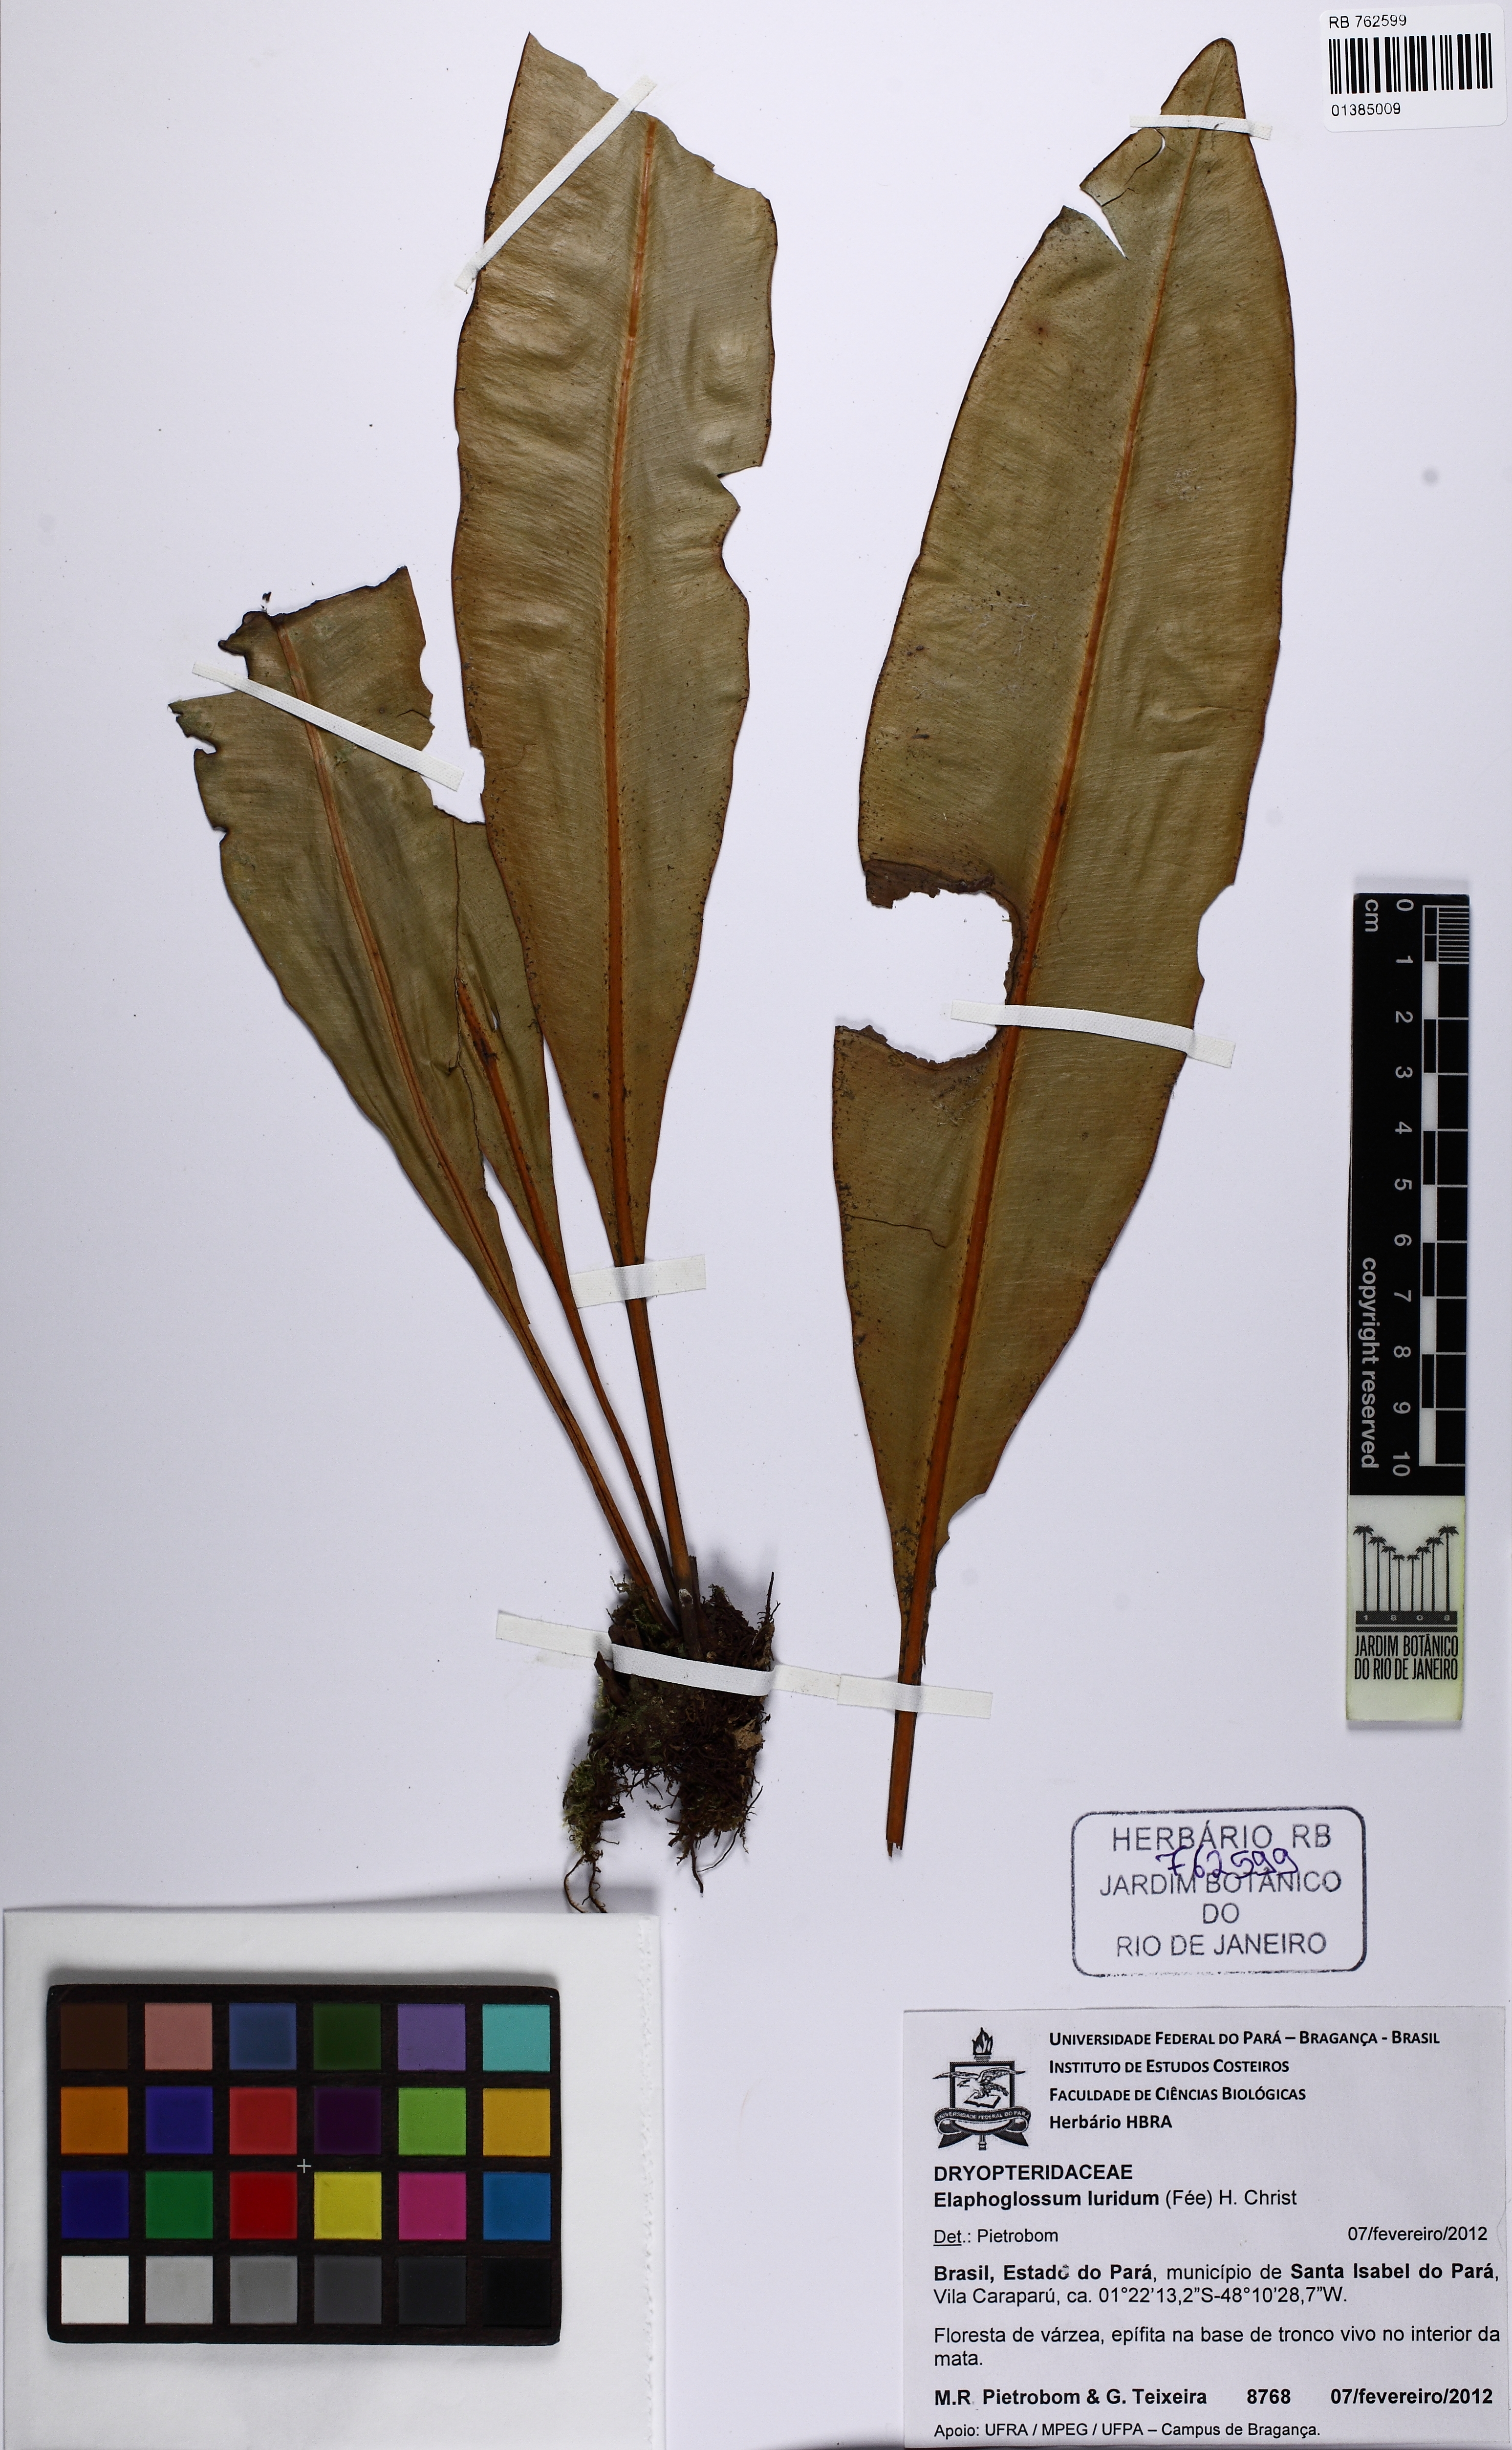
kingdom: Plantae
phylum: Tracheophyta
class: Polypodiopsida
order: Polypodiales
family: Dryopteridaceae
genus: Elaphoglossum
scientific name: Elaphoglossum luridum
